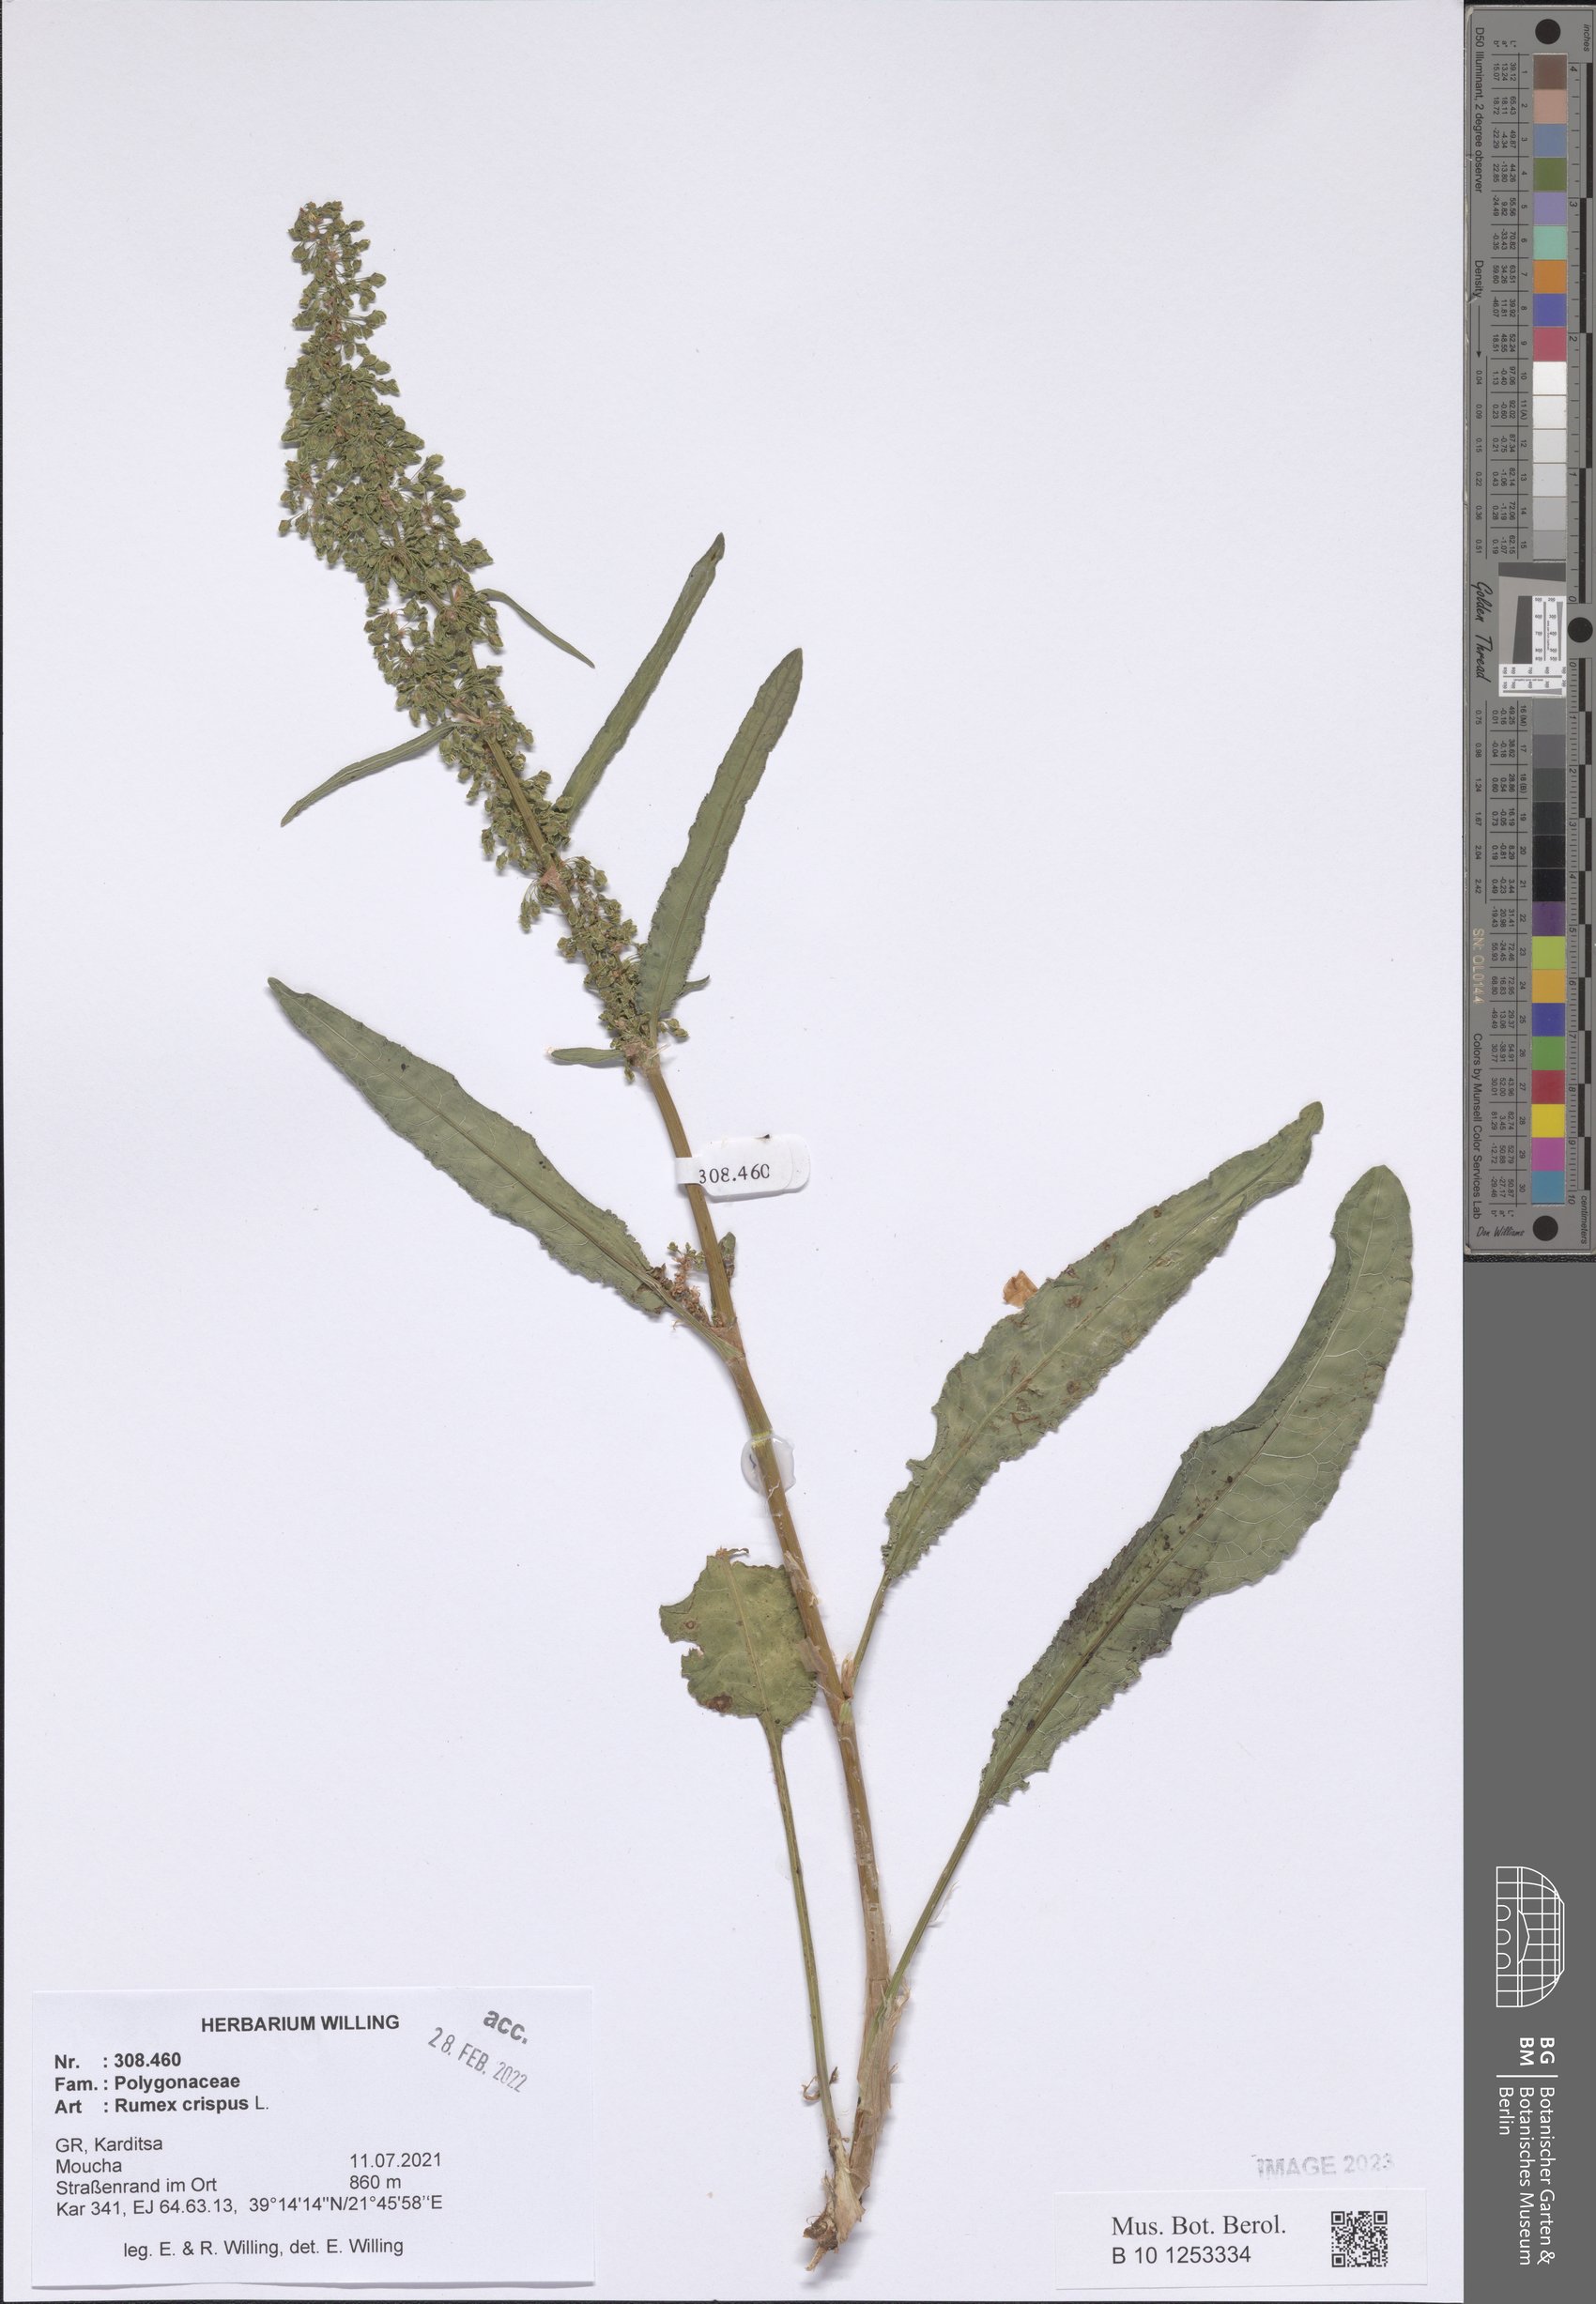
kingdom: Plantae
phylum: Tracheophyta
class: Magnoliopsida
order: Caryophyllales
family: Polygonaceae
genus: Rumex
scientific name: Rumex crispus
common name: Curled dock
